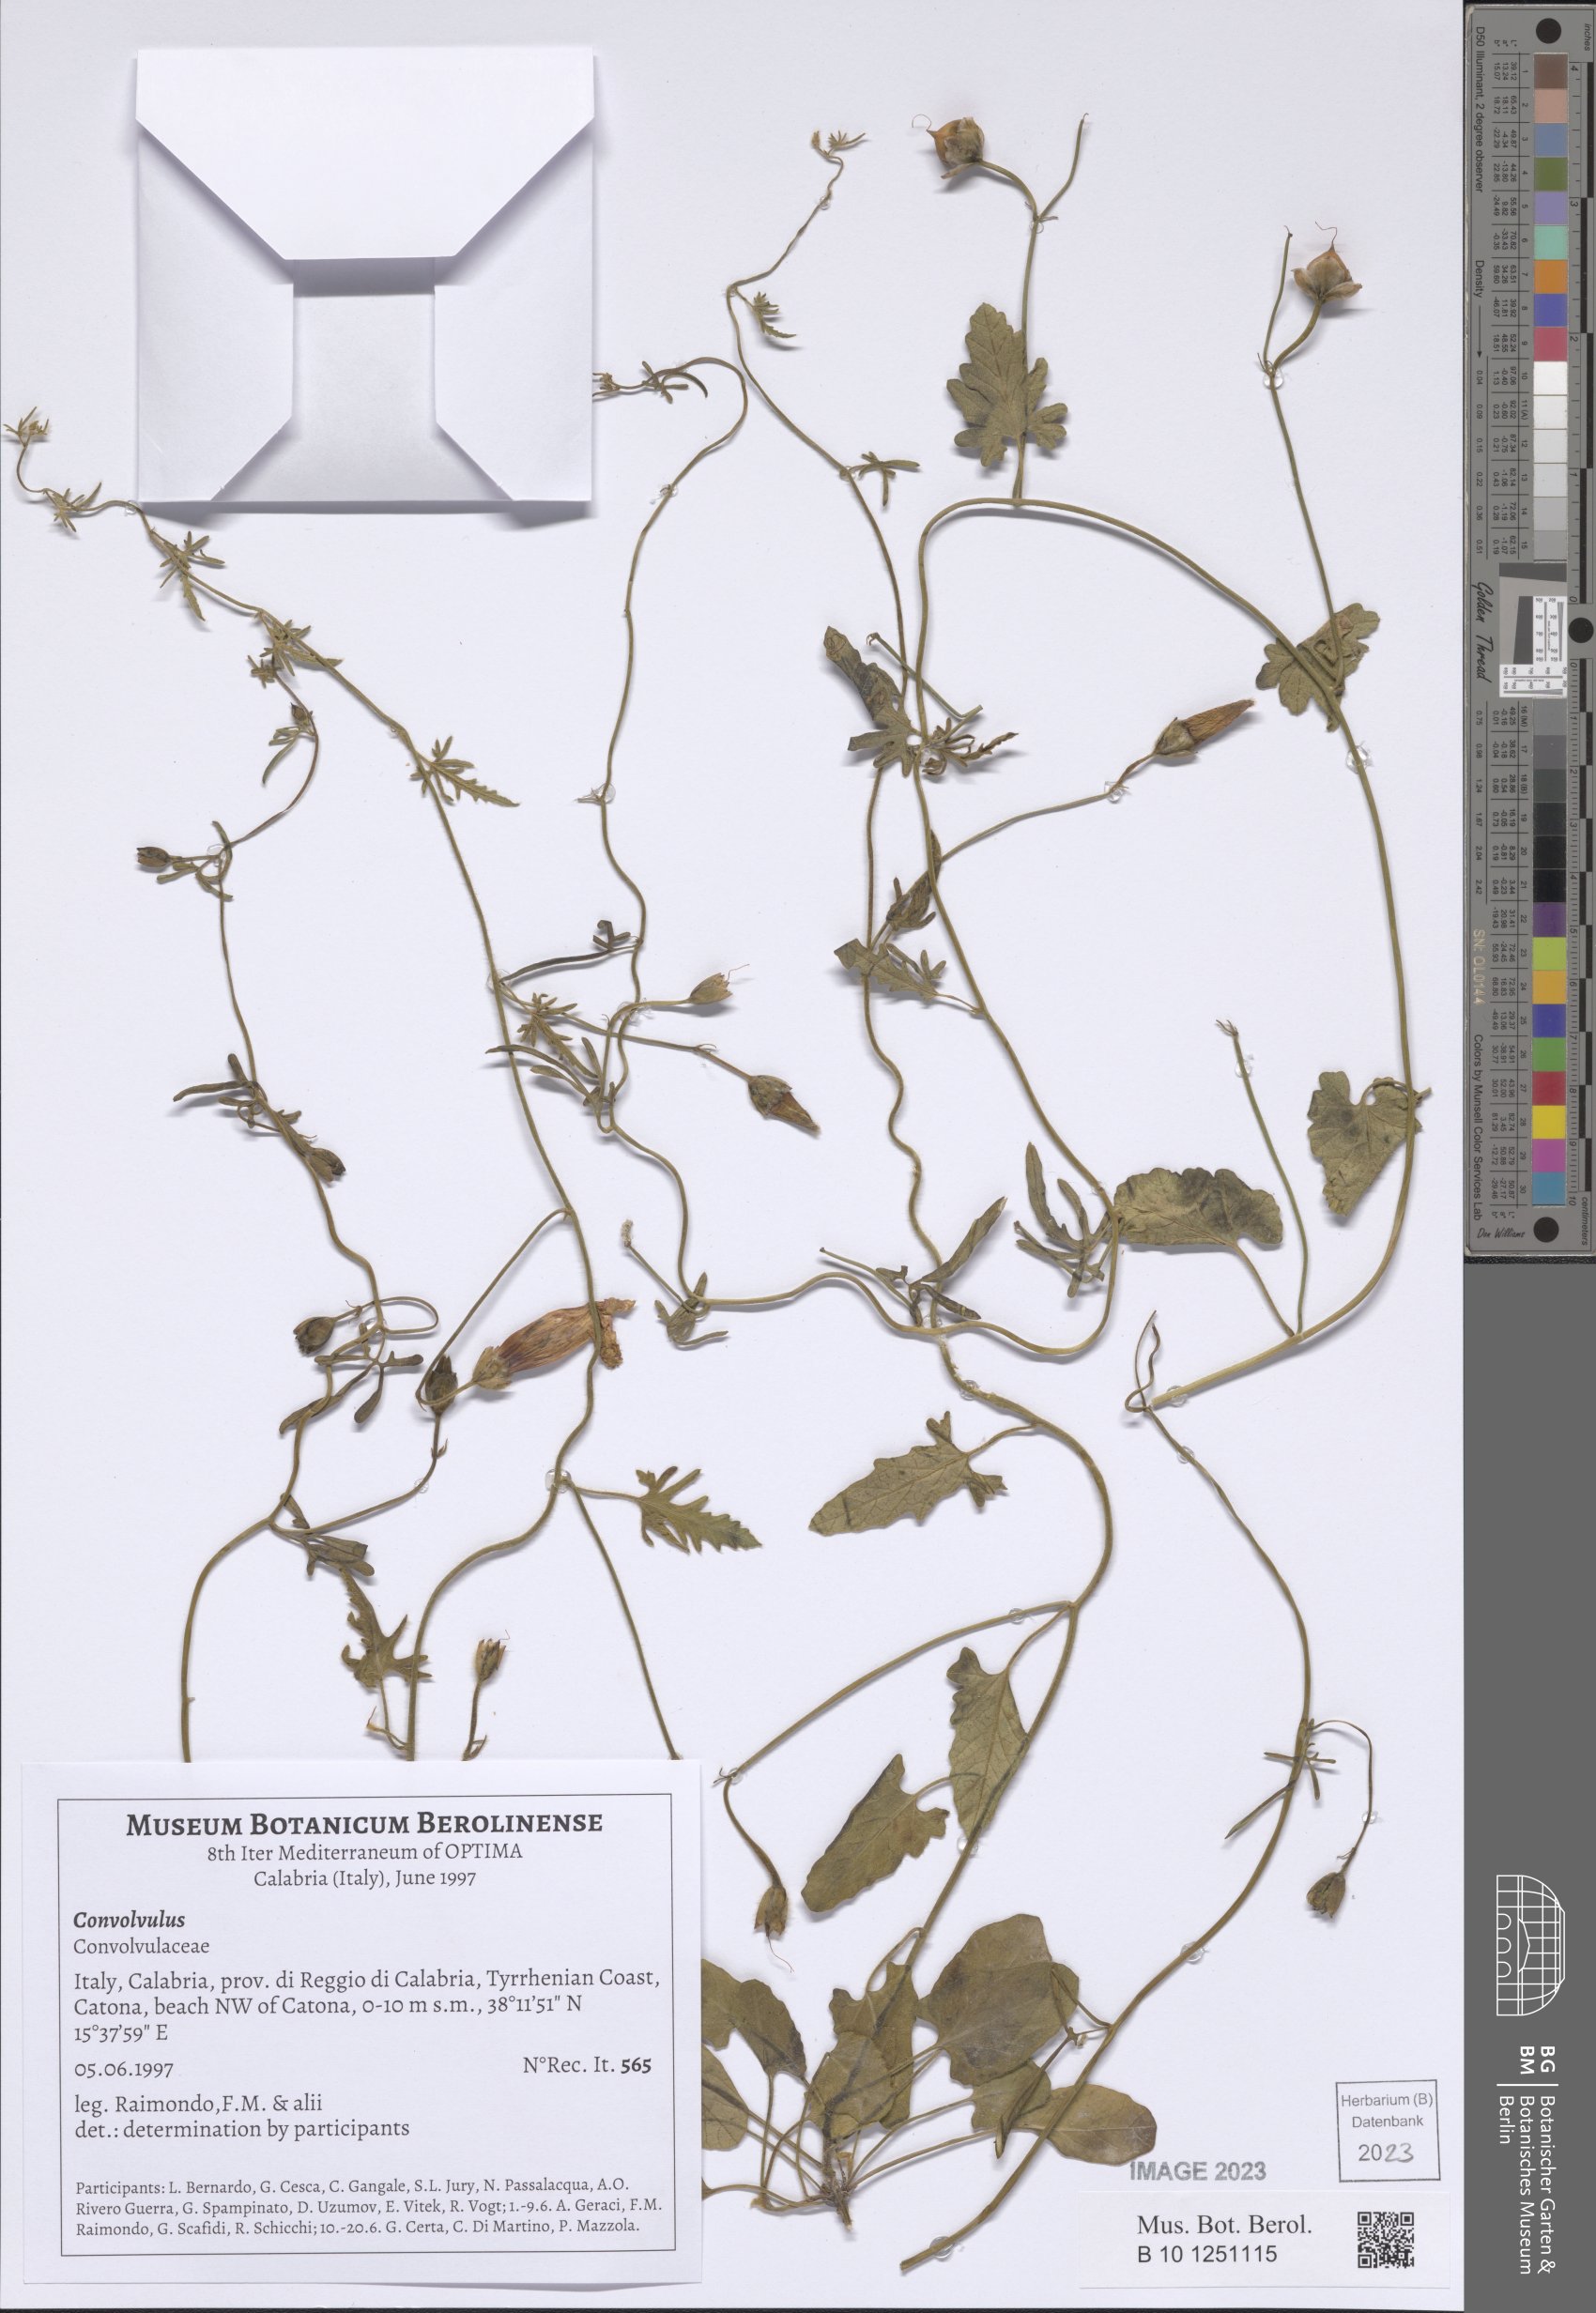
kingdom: Plantae
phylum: Tracheophyta
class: Magnoliopsida
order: Solanales
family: Convolvulaceae
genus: Convolvulus
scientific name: Convolvulus
